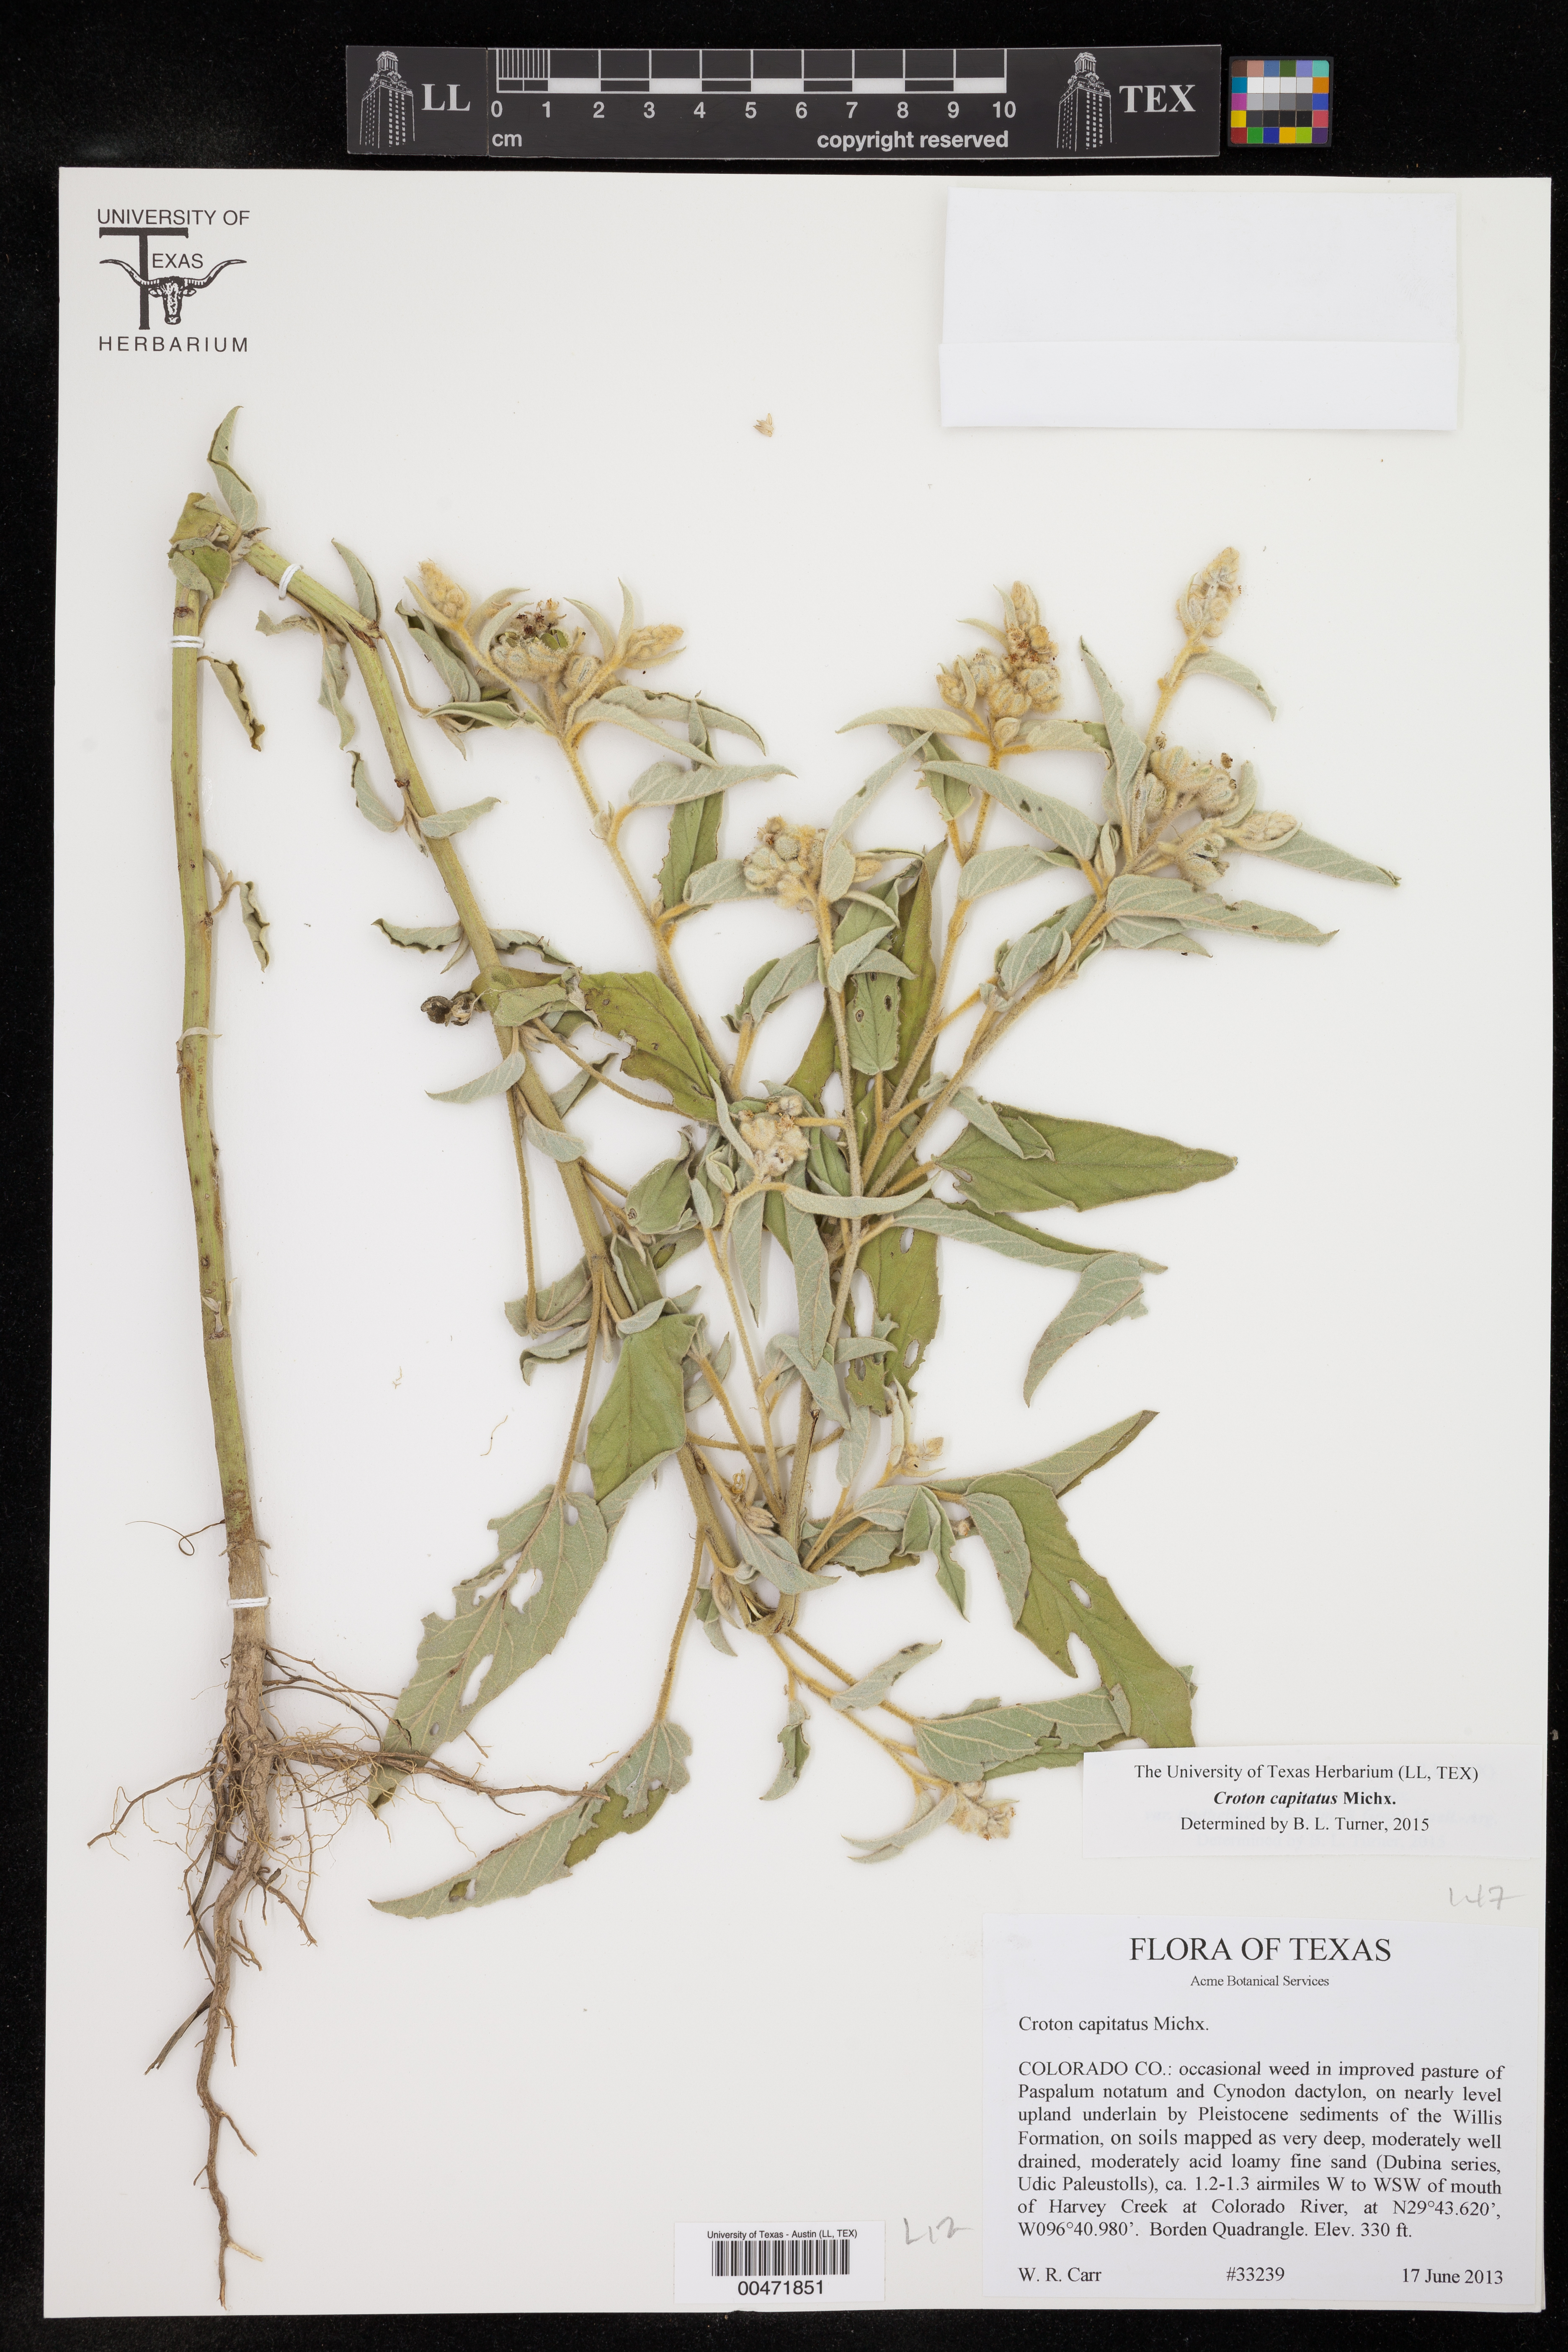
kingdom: Plantae
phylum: Tracheophyta
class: Magnoliopsida
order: Malpighiales
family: Euphorbiaceae
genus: Croton
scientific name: Croton capitatus
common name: Woolly croton
